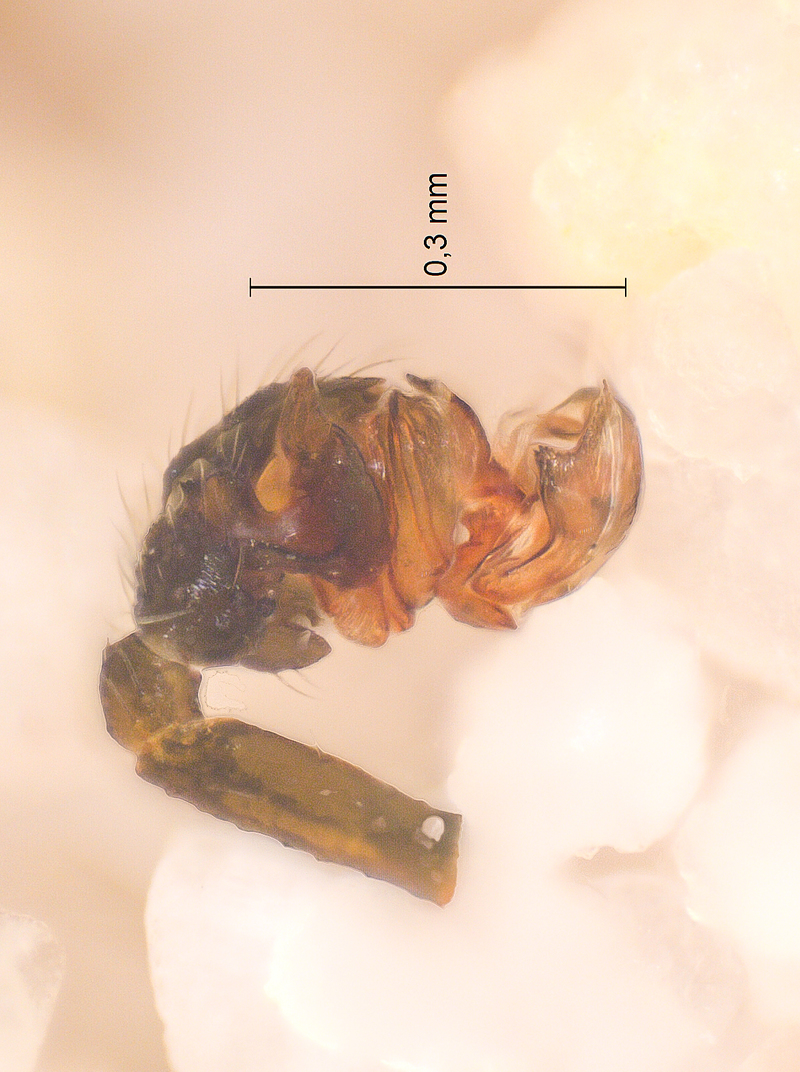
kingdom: Animalia
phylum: Arthropoda
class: Arachnida
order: Araneae
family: Linyphiidae
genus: Agyneta
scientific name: Agyneta affinis
